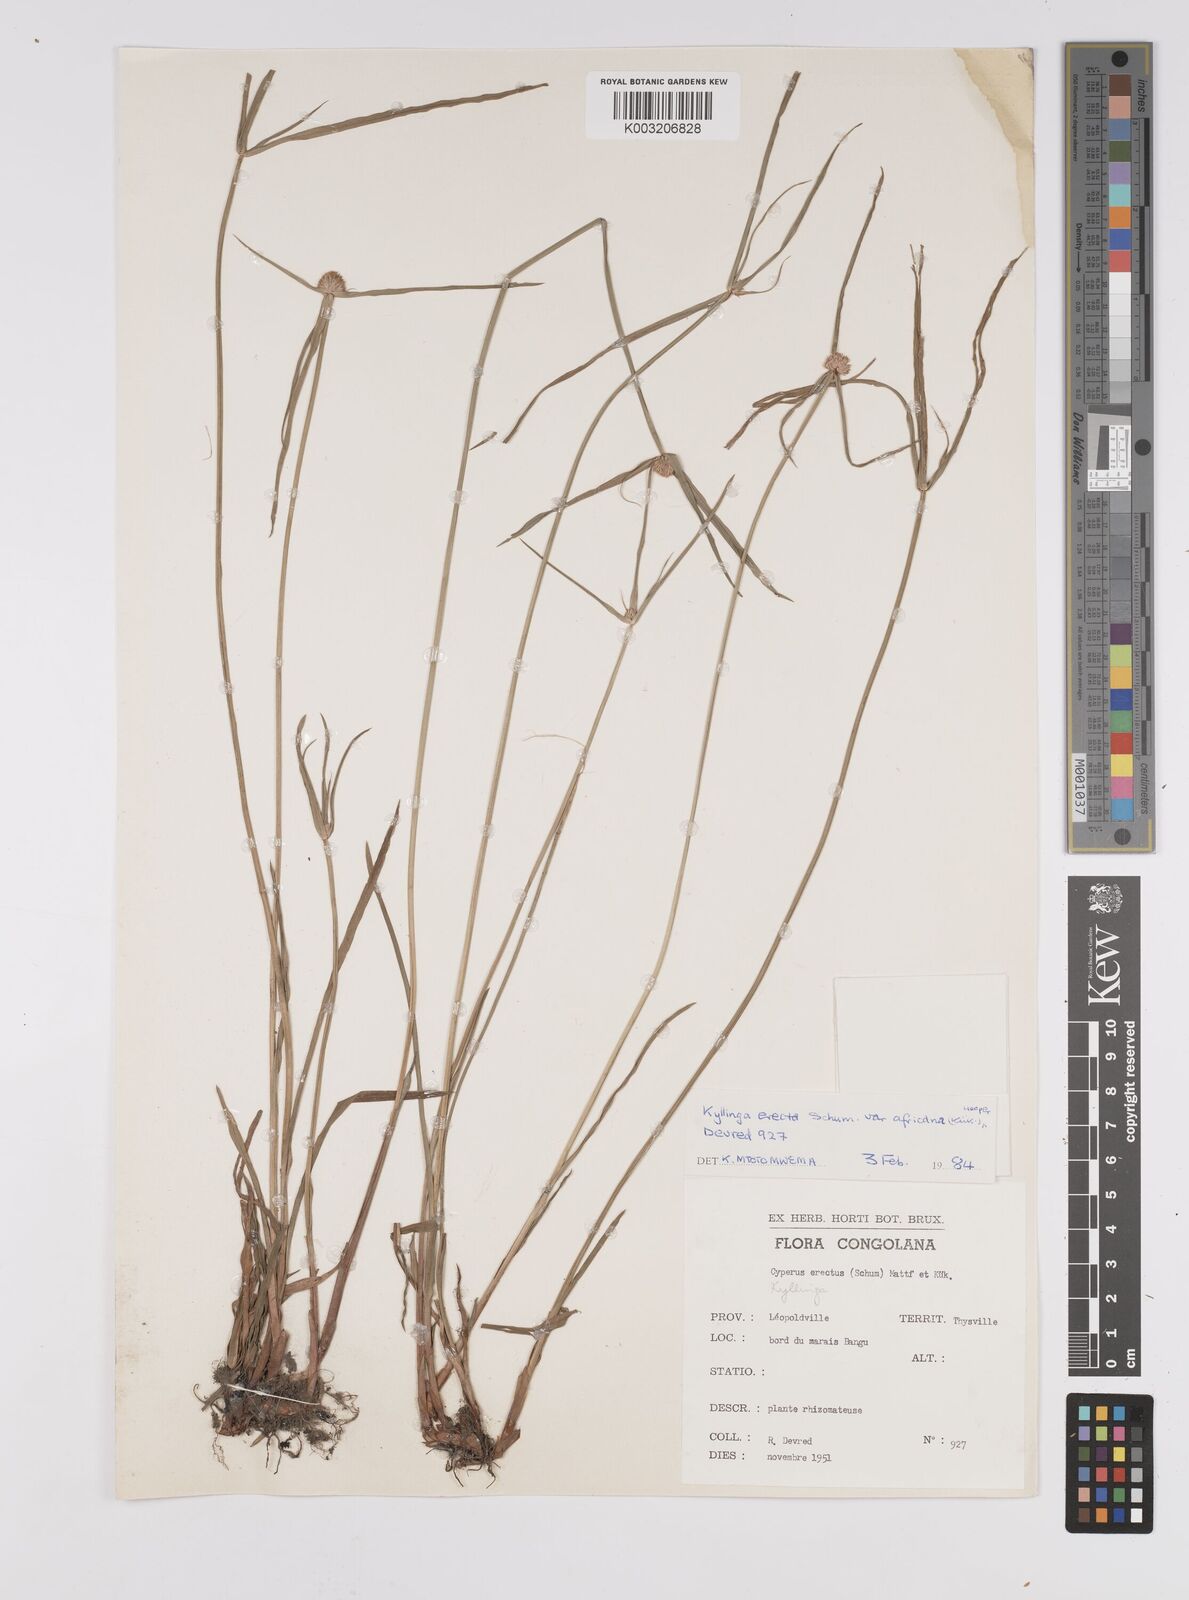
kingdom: Plantae
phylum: Tracheophyta
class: Liliopsida
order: Poales
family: Cyperaceae
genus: Cyperus
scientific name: Cyperus erectus
